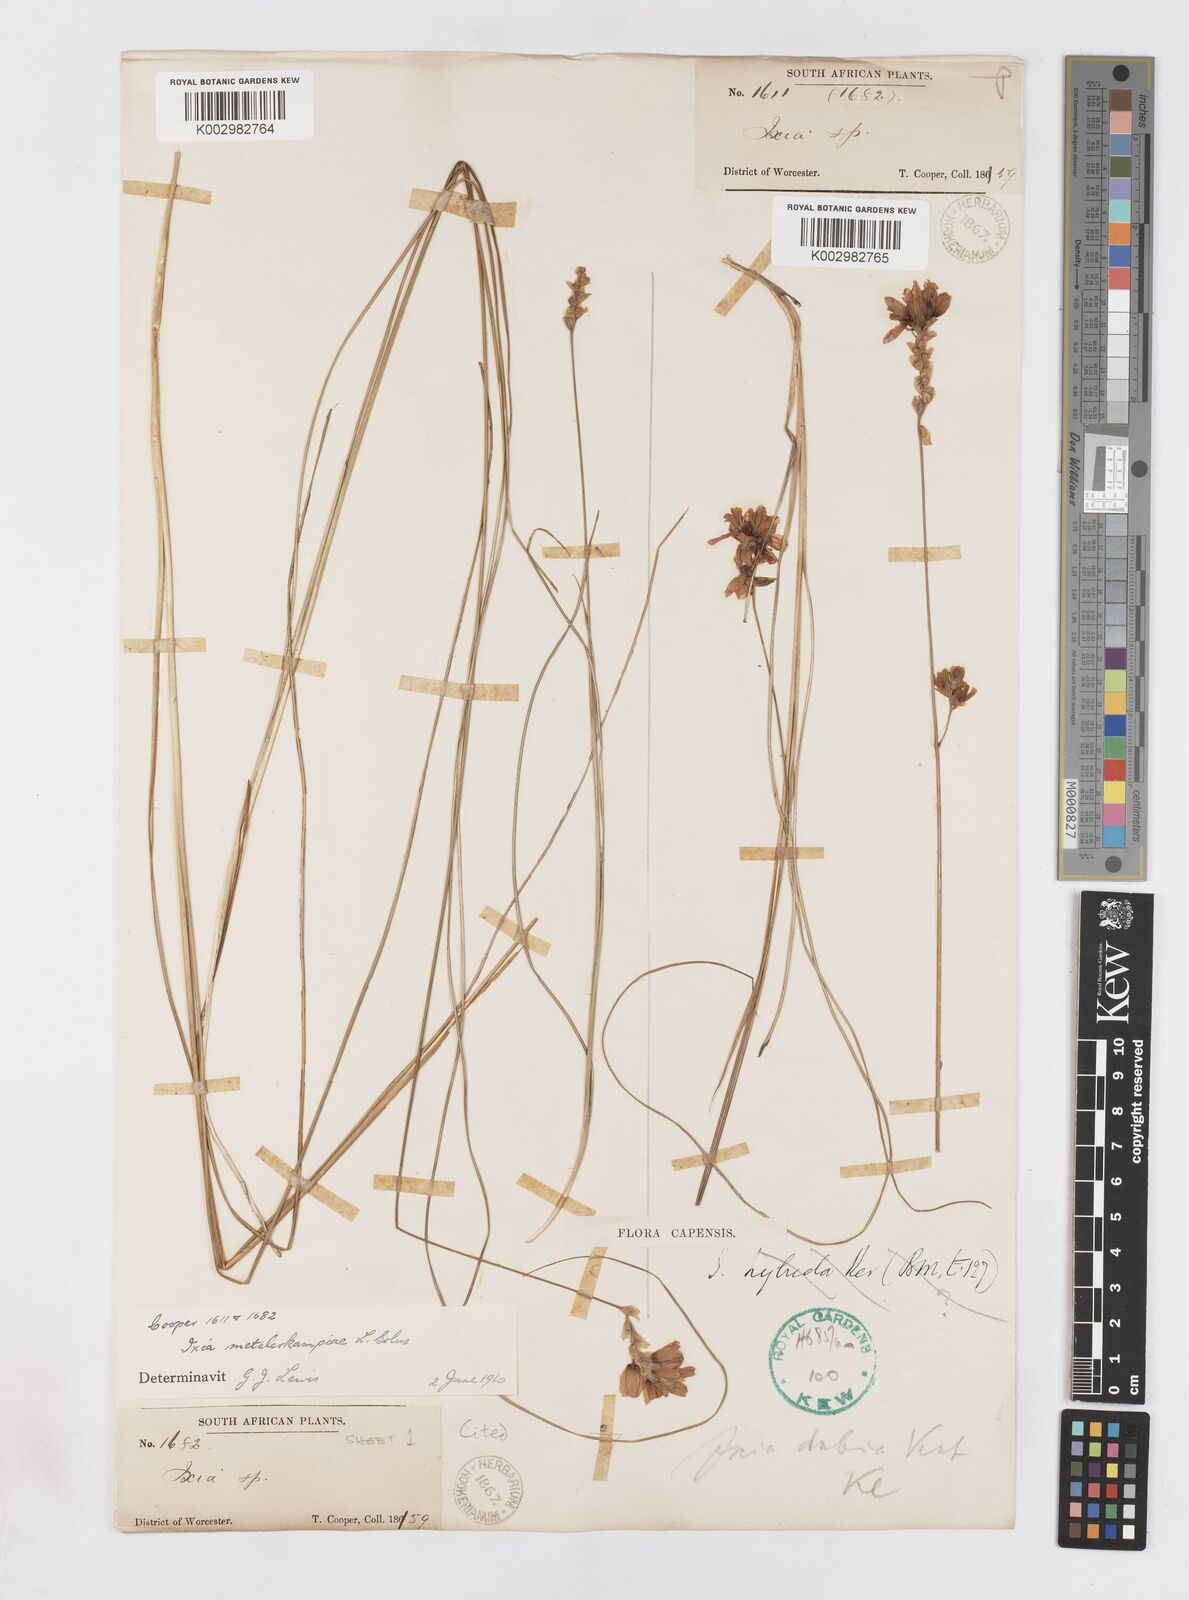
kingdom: Plantae
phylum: Tracheophyta
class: Liliopsida
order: Asparagales
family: Iridaceae
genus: Ixia
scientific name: Ixia metelerkampiae
